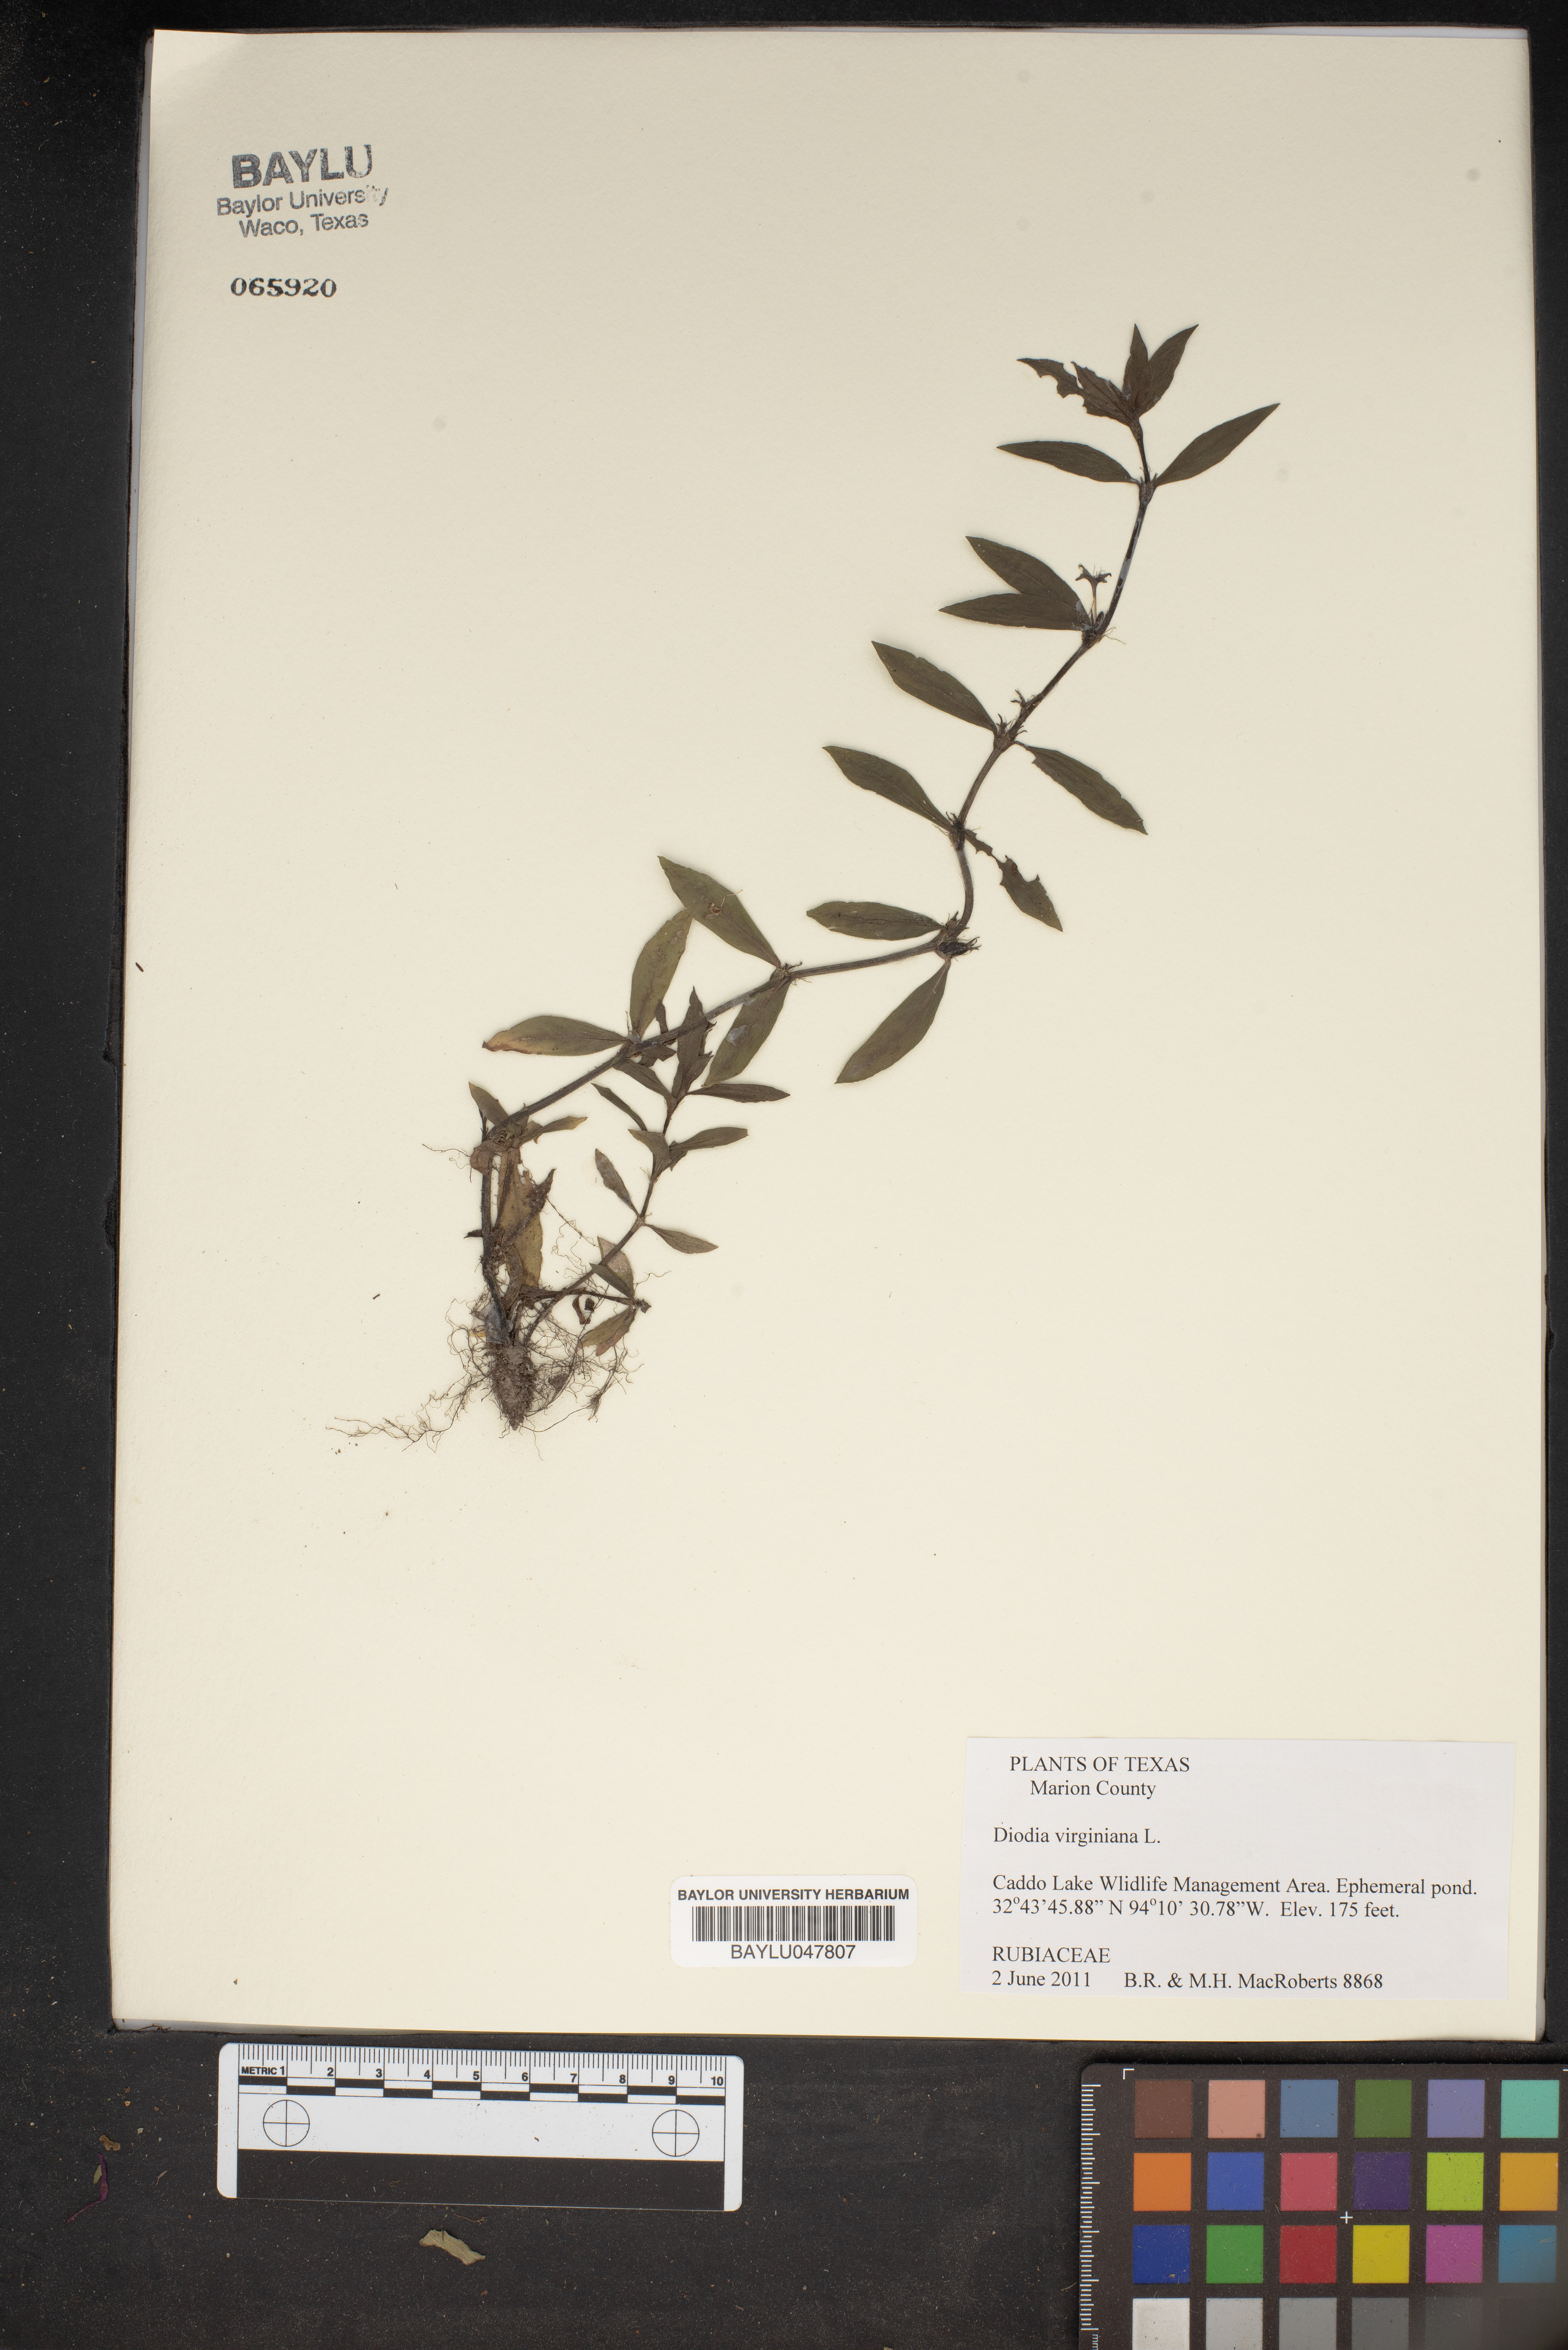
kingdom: Plantae
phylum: Tracheophyta
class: Magnoliopsida
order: Gentianales
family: Rubiaceae
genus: Diodia
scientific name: Diodia virginiana
